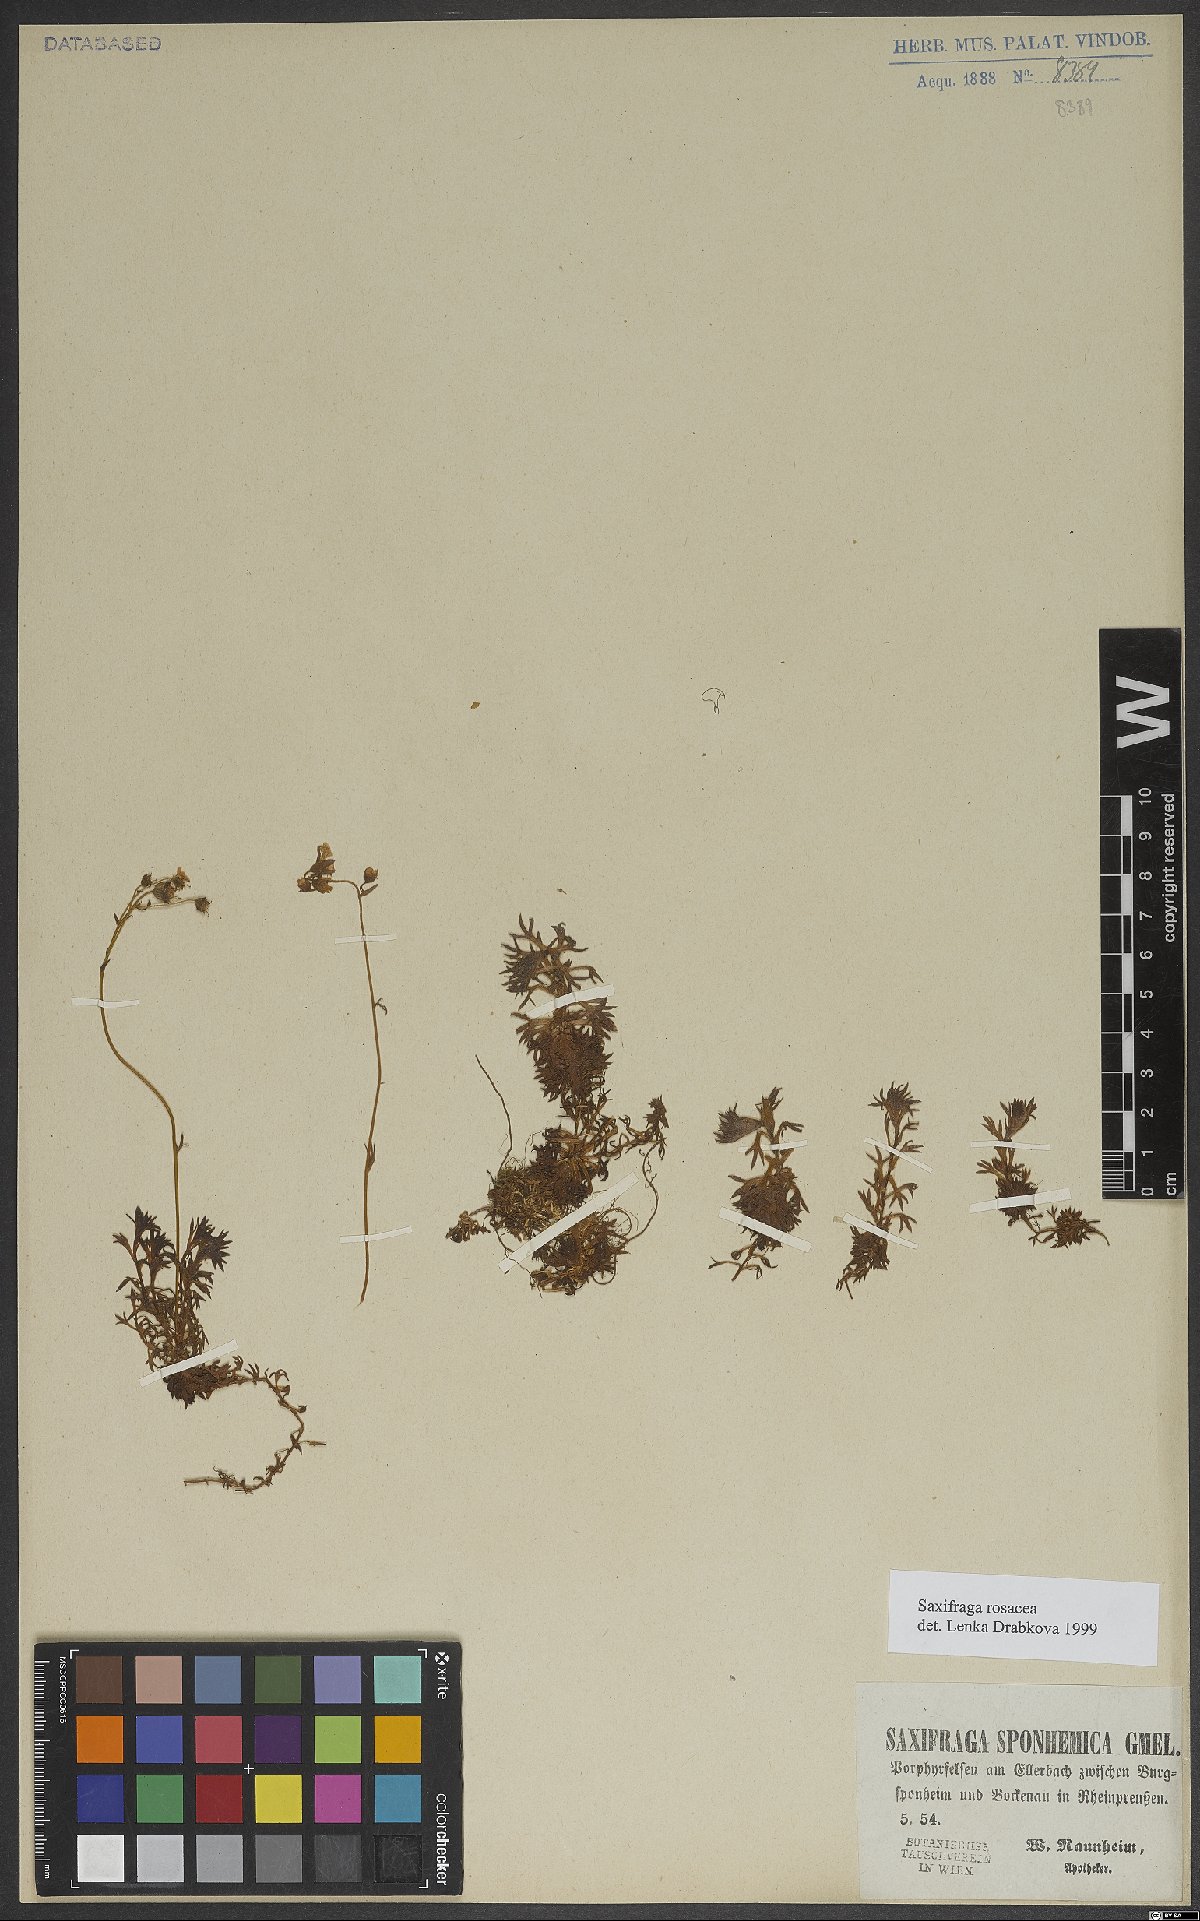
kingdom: Plantae
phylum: Tracheophyta
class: Magnoliopsida
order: Saxifragales
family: Saxifragaceae
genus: Saxifraga
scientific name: Saxifraga rosacea
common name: Irish saxifrage
